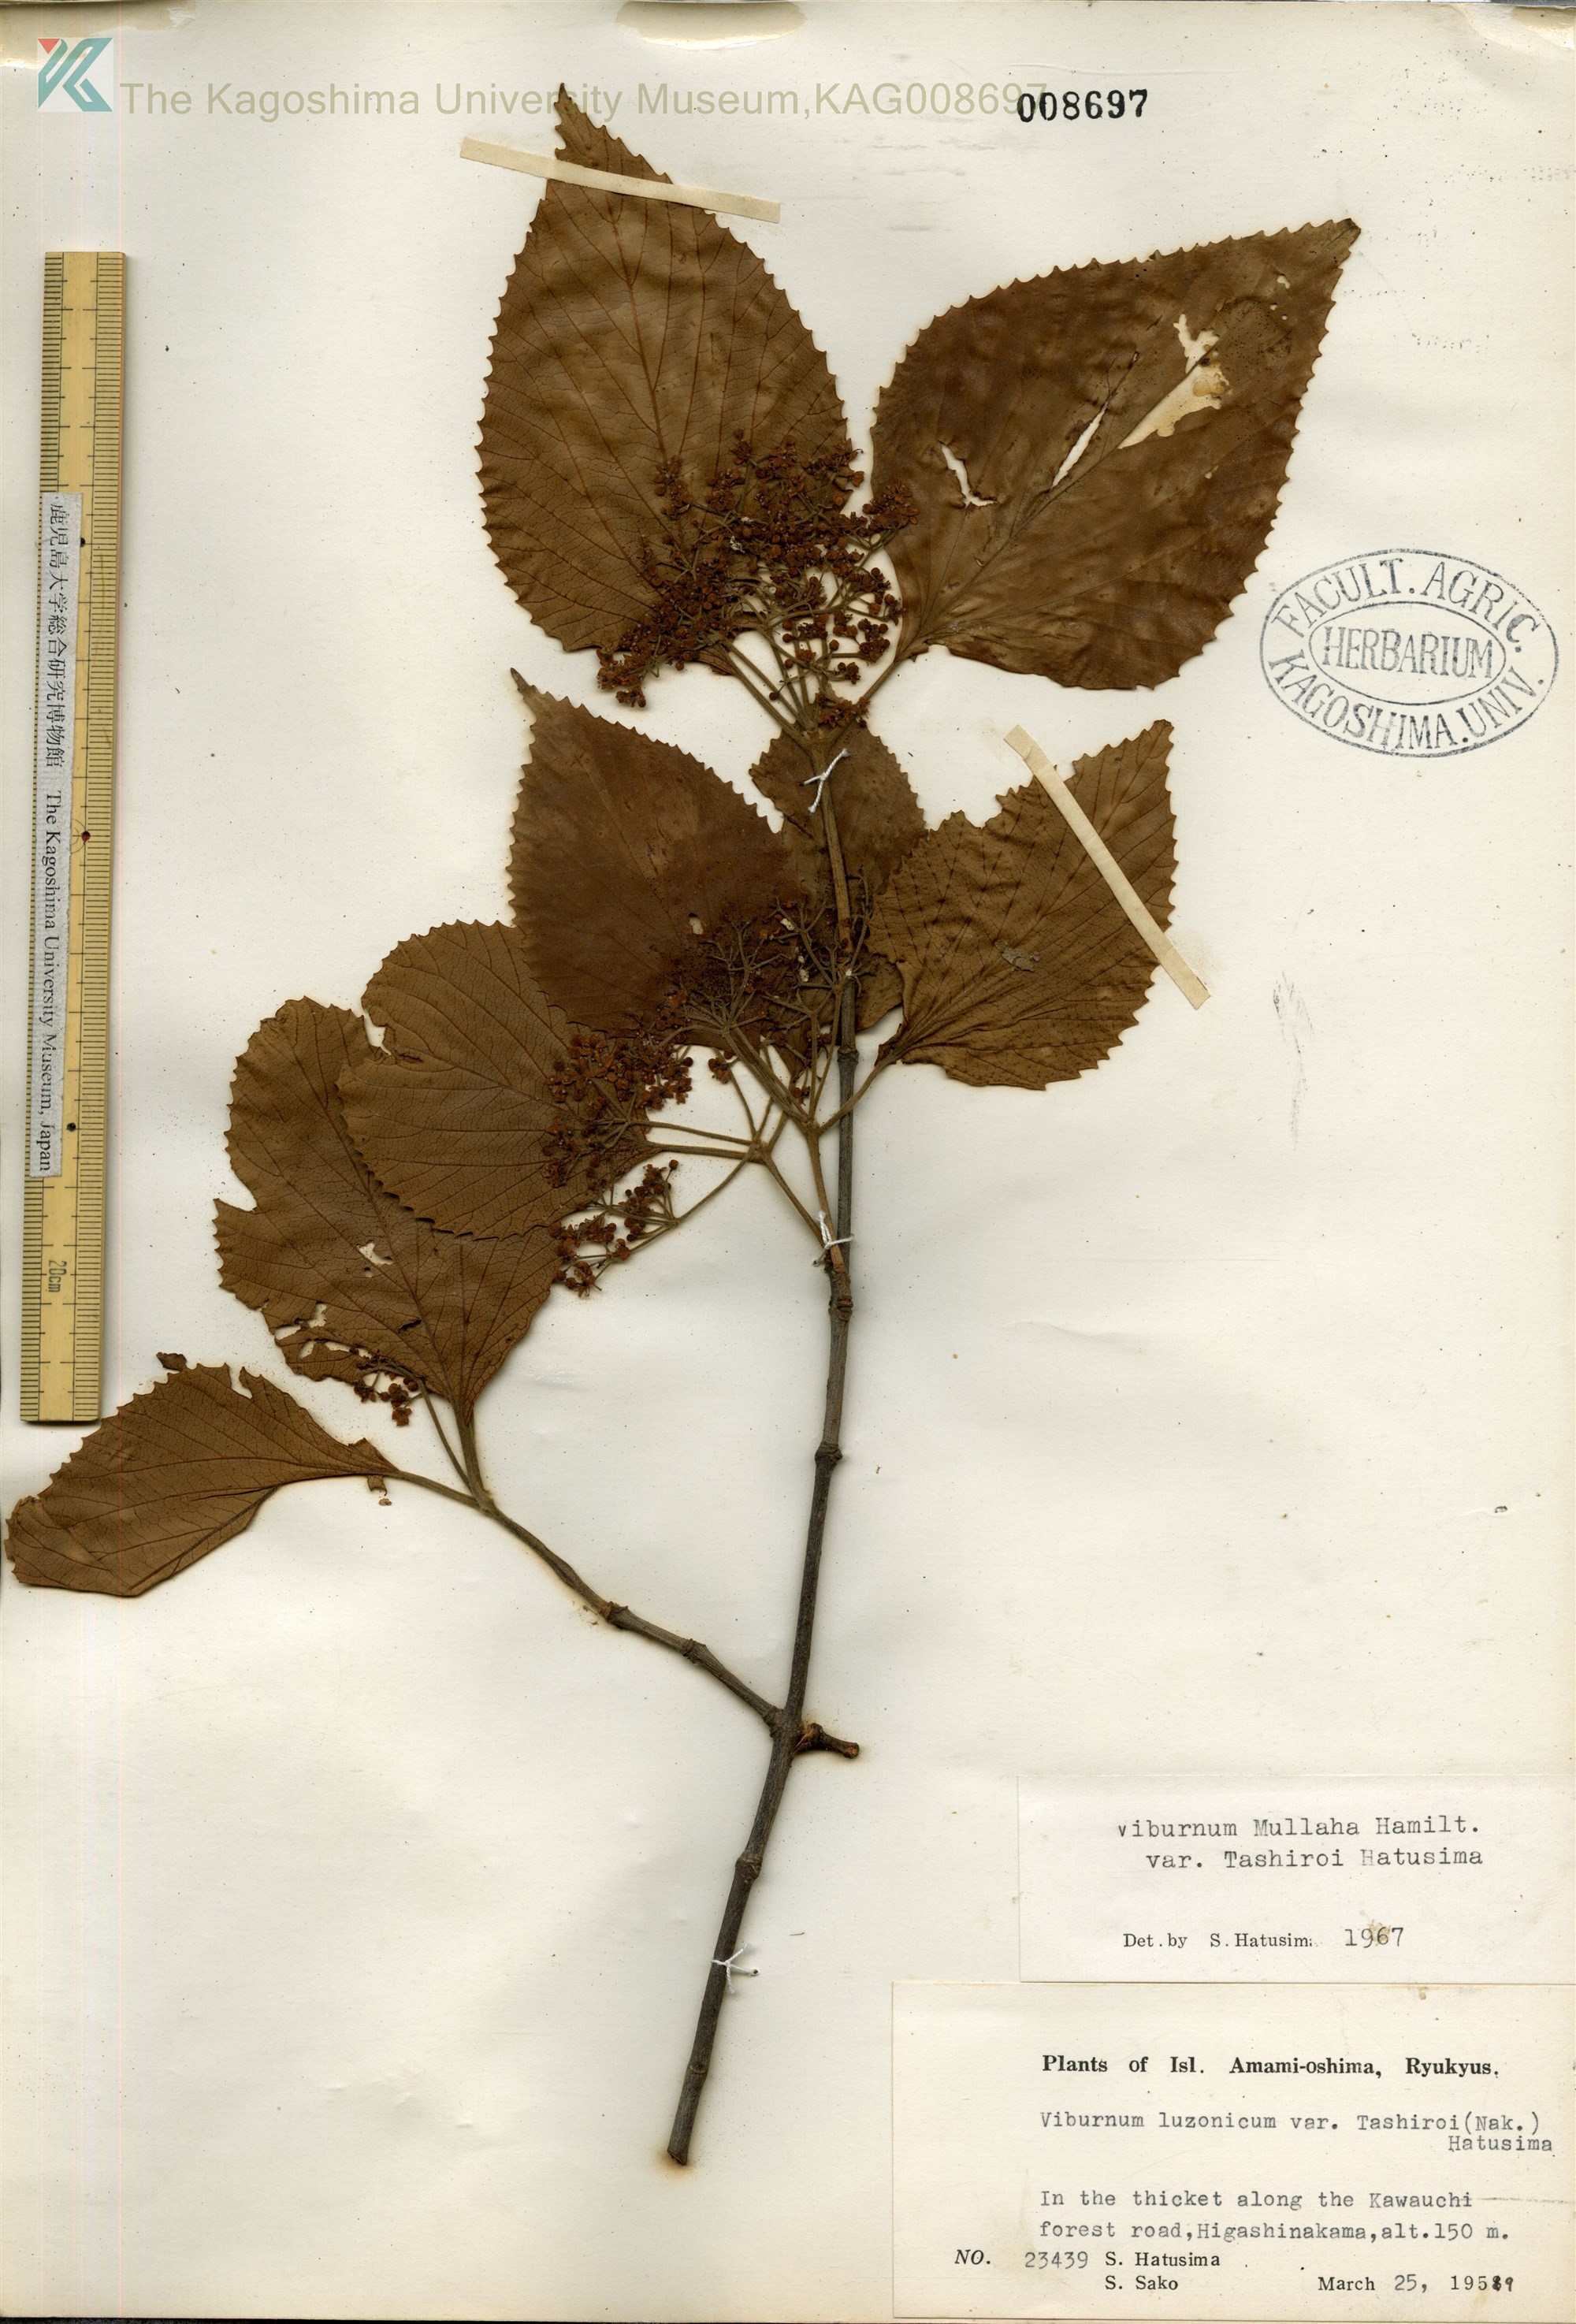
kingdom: Plantae
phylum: Tracheophyta
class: Magnoliopsida
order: Dipsacales
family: Viburnaceae
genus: Viburnum
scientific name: Viburnum luzonicum
